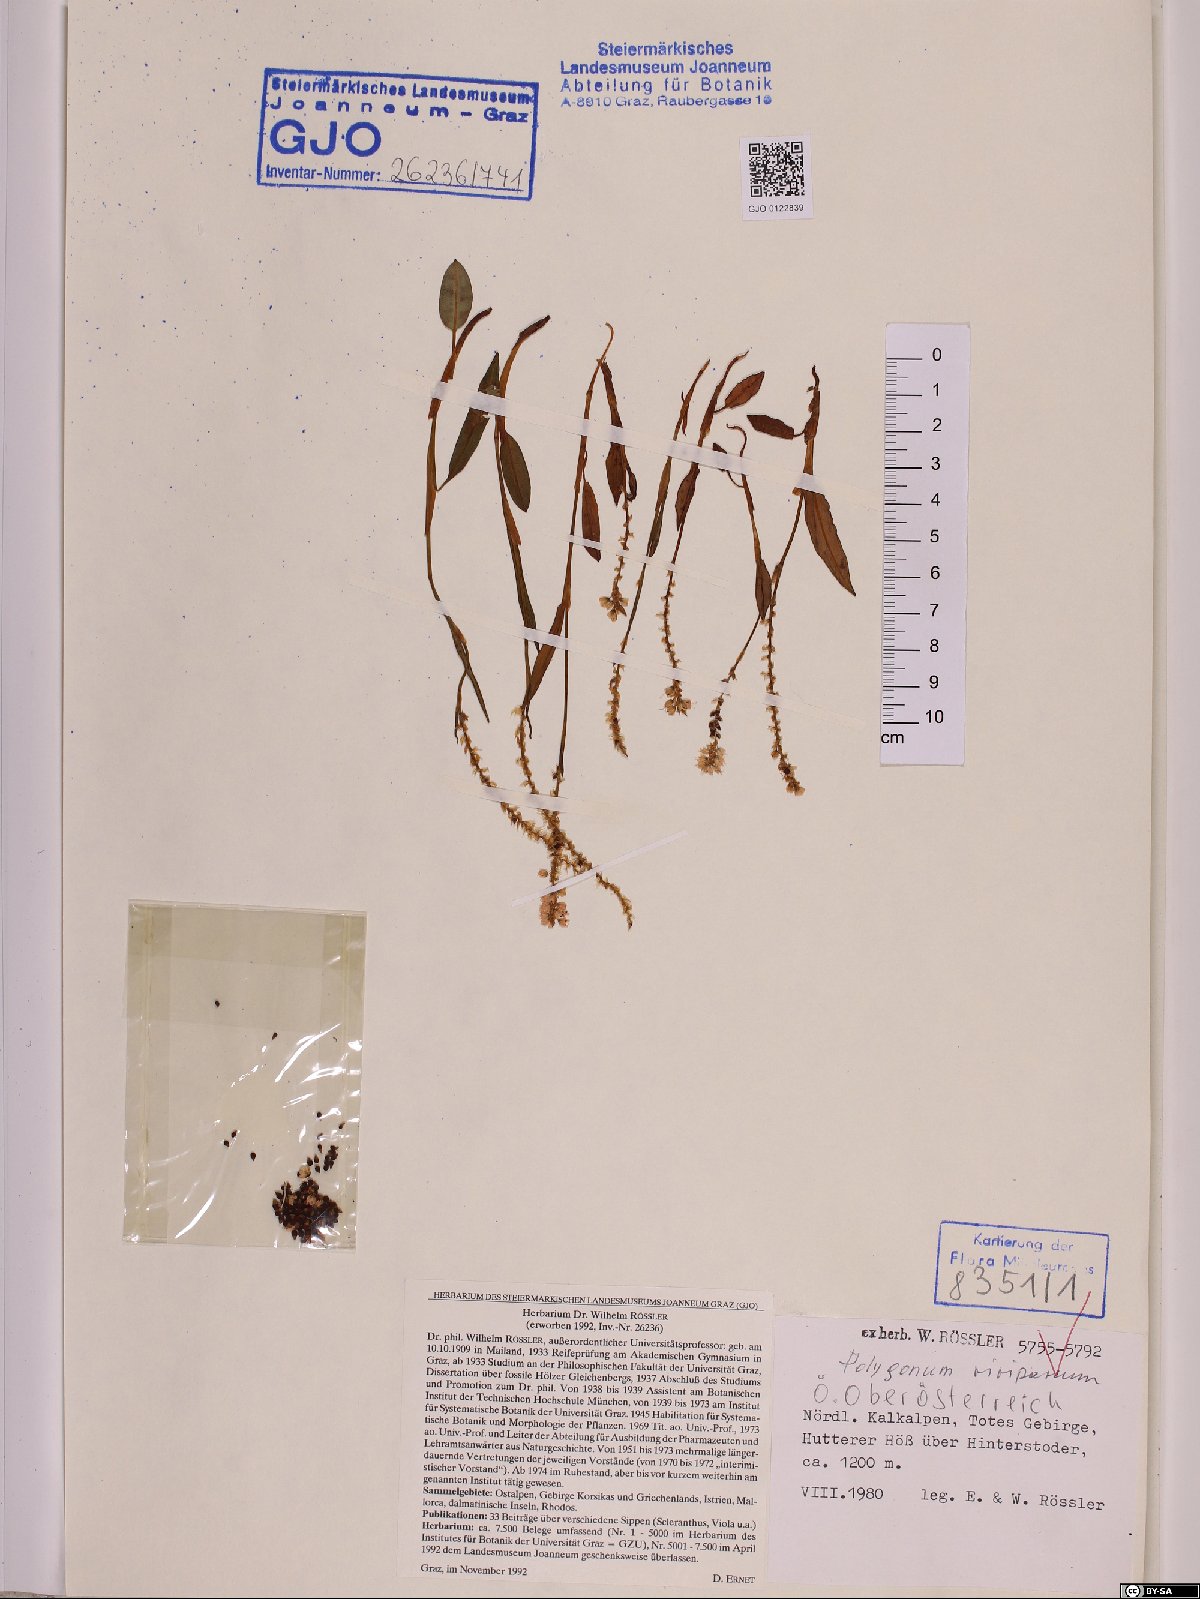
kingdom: Plantae
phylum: Tracheophyta
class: Magnoliopsida
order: Caryophyllales
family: Polygonaceae
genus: Bistorta
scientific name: Bistorta vivipara
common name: Alpine bistort
